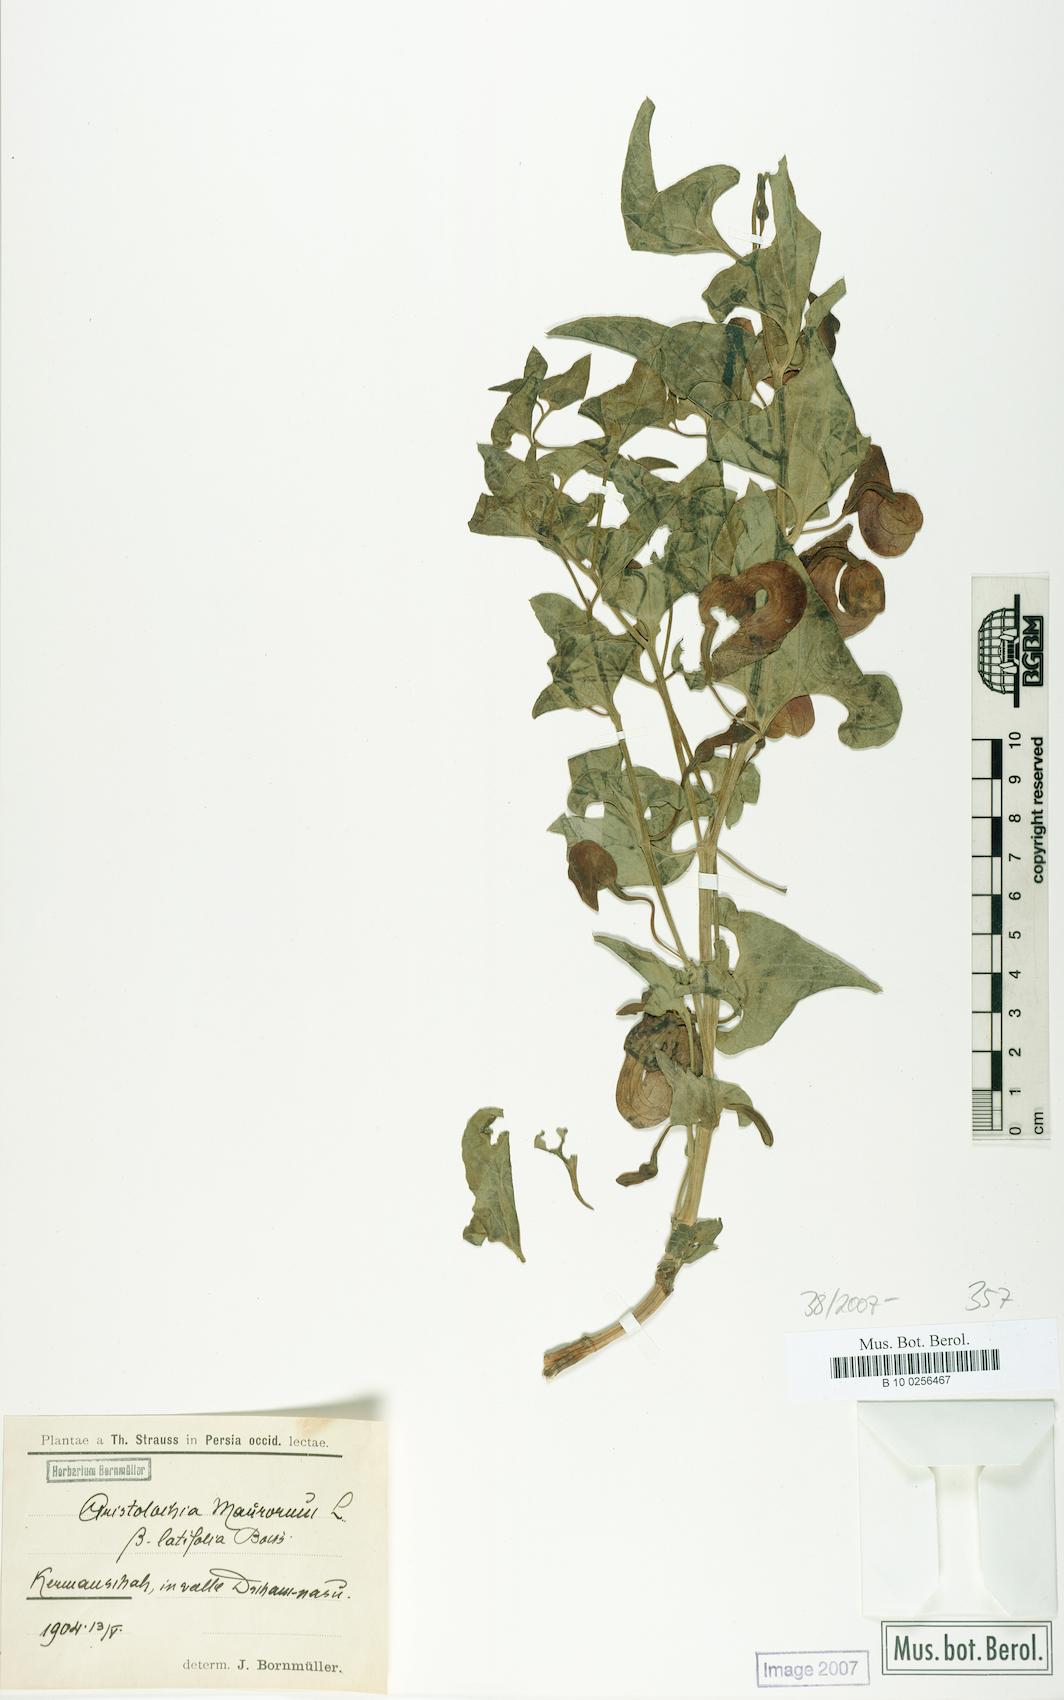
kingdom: Plantae
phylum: Tracheophyta
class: Magnoliopsida
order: Piperales
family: Aristolochiaceae
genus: Aristolochia
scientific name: Aristolochia bottae
